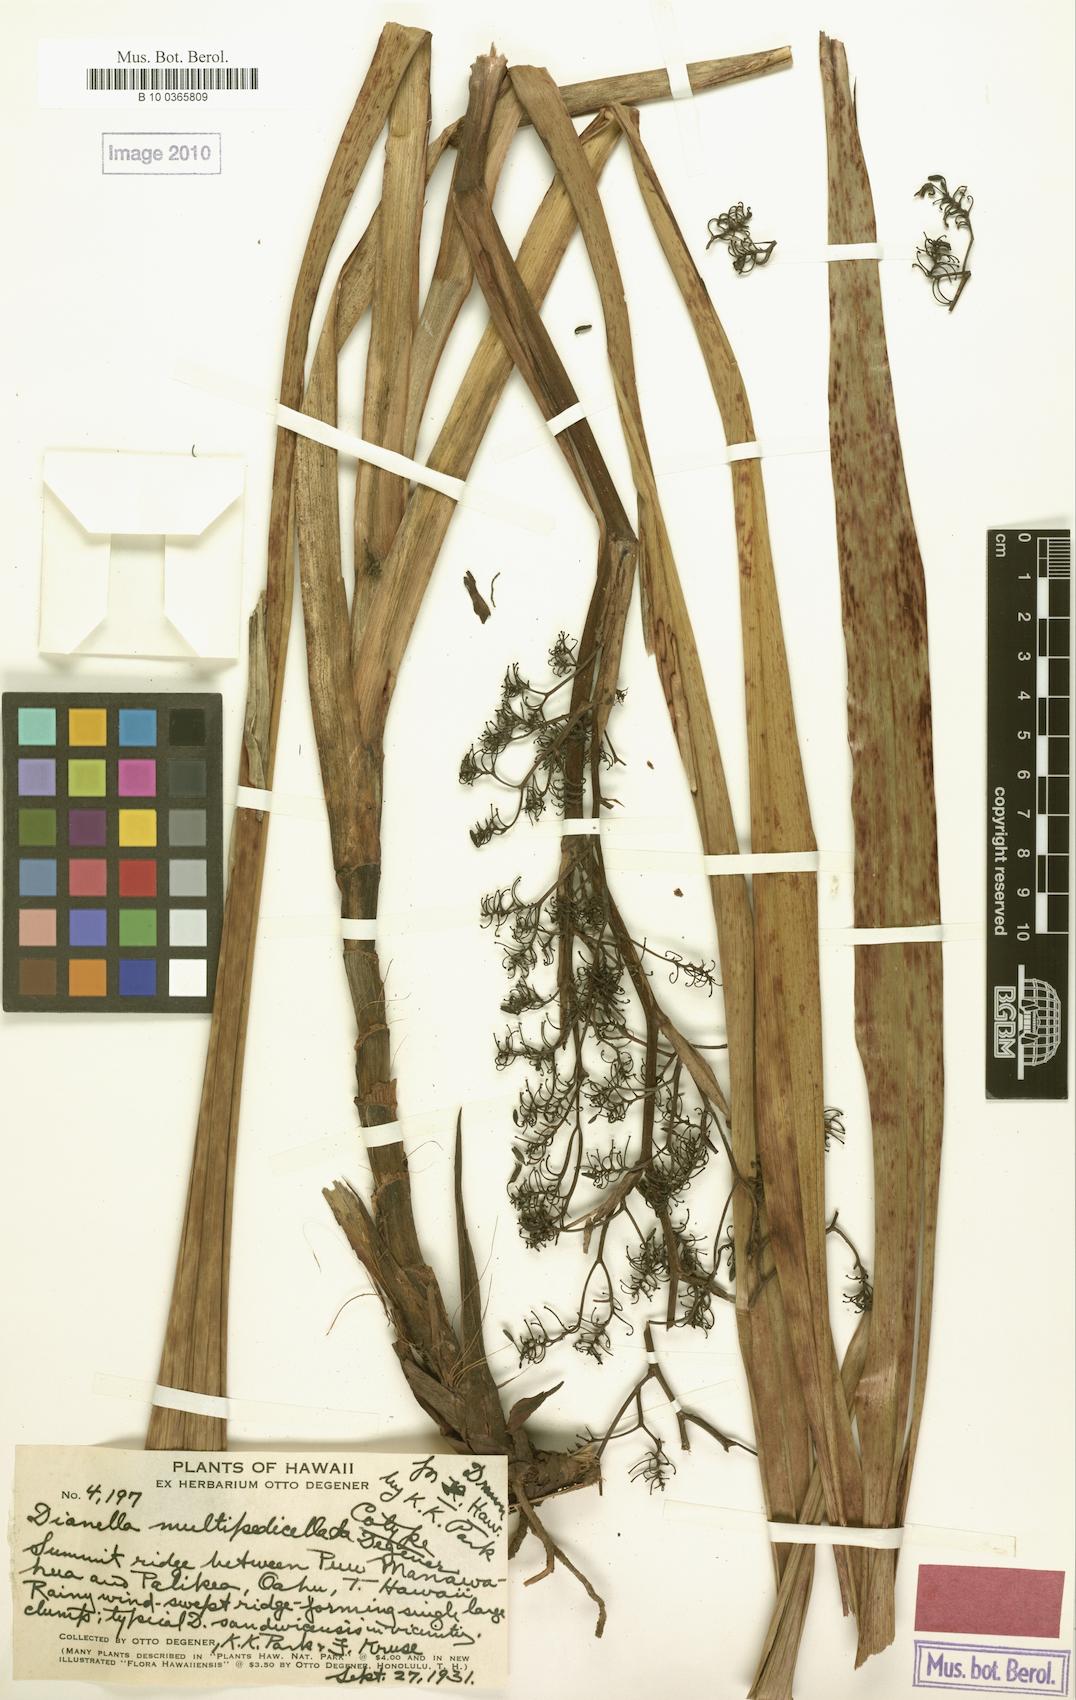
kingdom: Plantae
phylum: Tracheophyta
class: Liliopsida
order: Asparagales
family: Asphodelaceae
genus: Dianella
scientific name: Dianella sandwicensis
